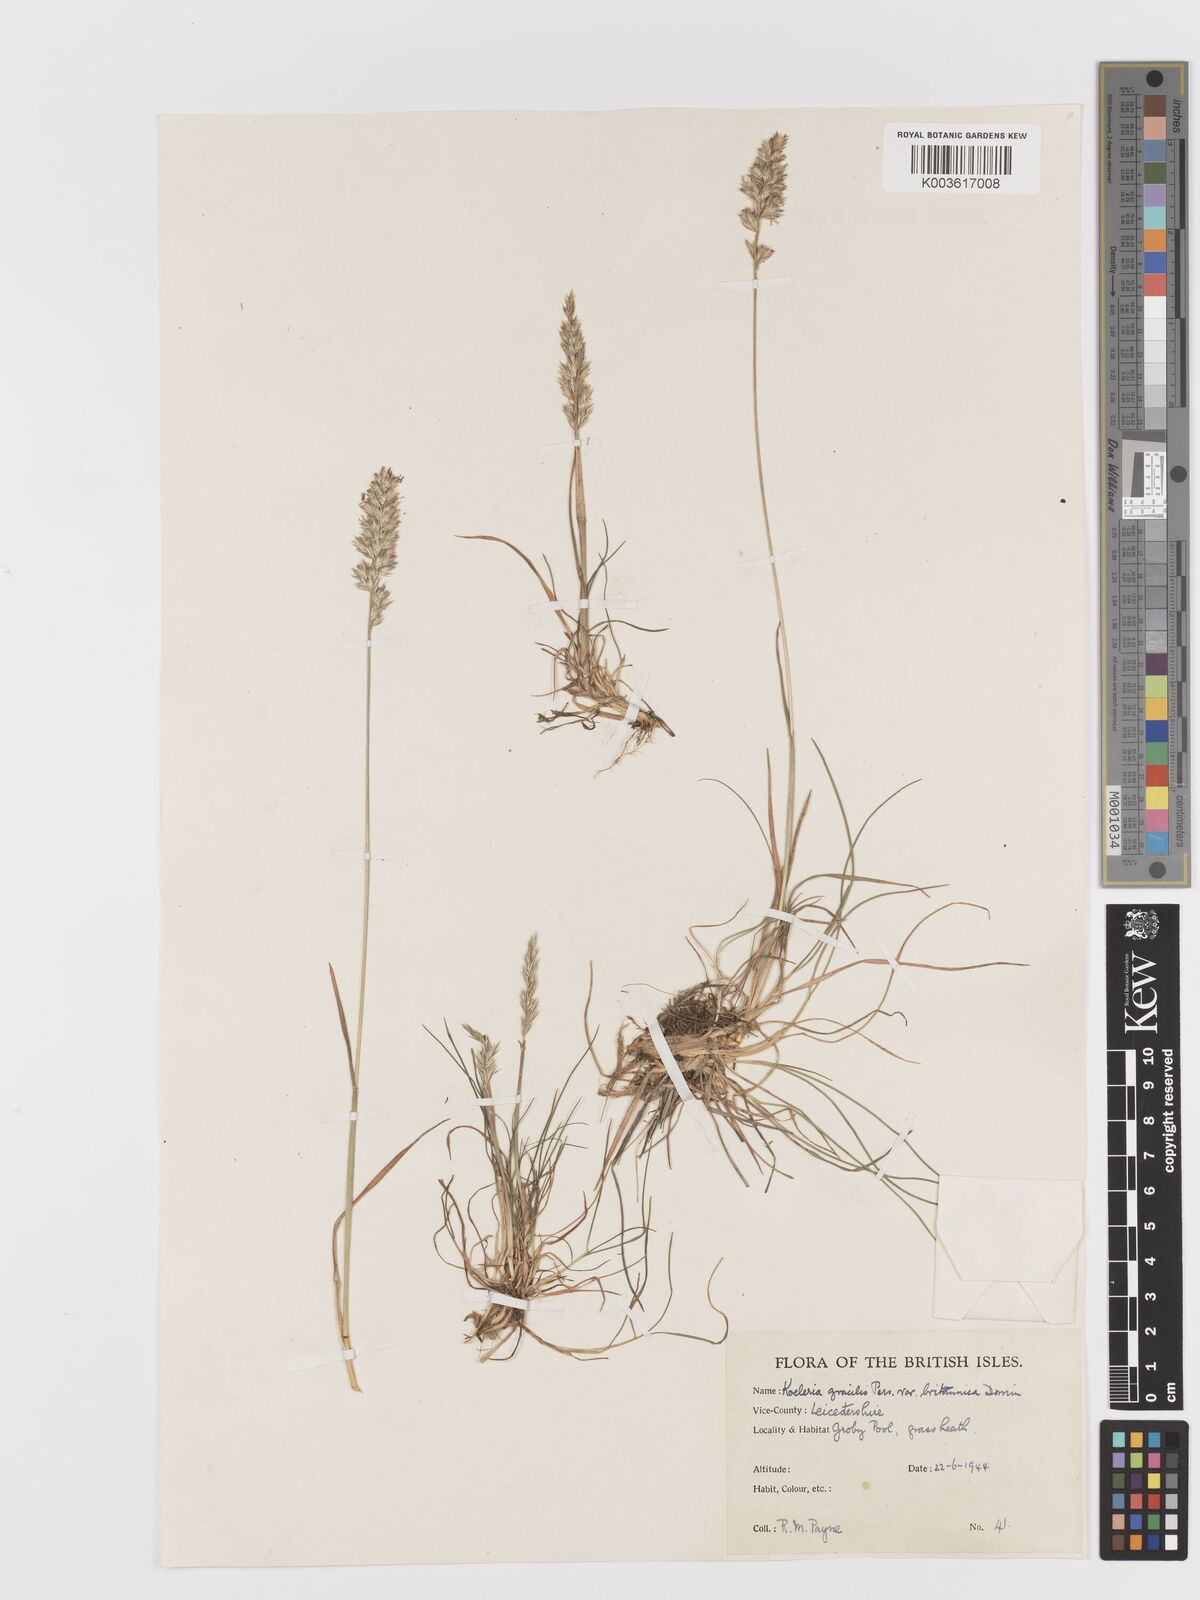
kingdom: Plantae
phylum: Tracheophyta
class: Liliopsida
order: Poales
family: Poaceae
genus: Koeleria
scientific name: Koeleria macrantha
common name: Crested hair-grass
